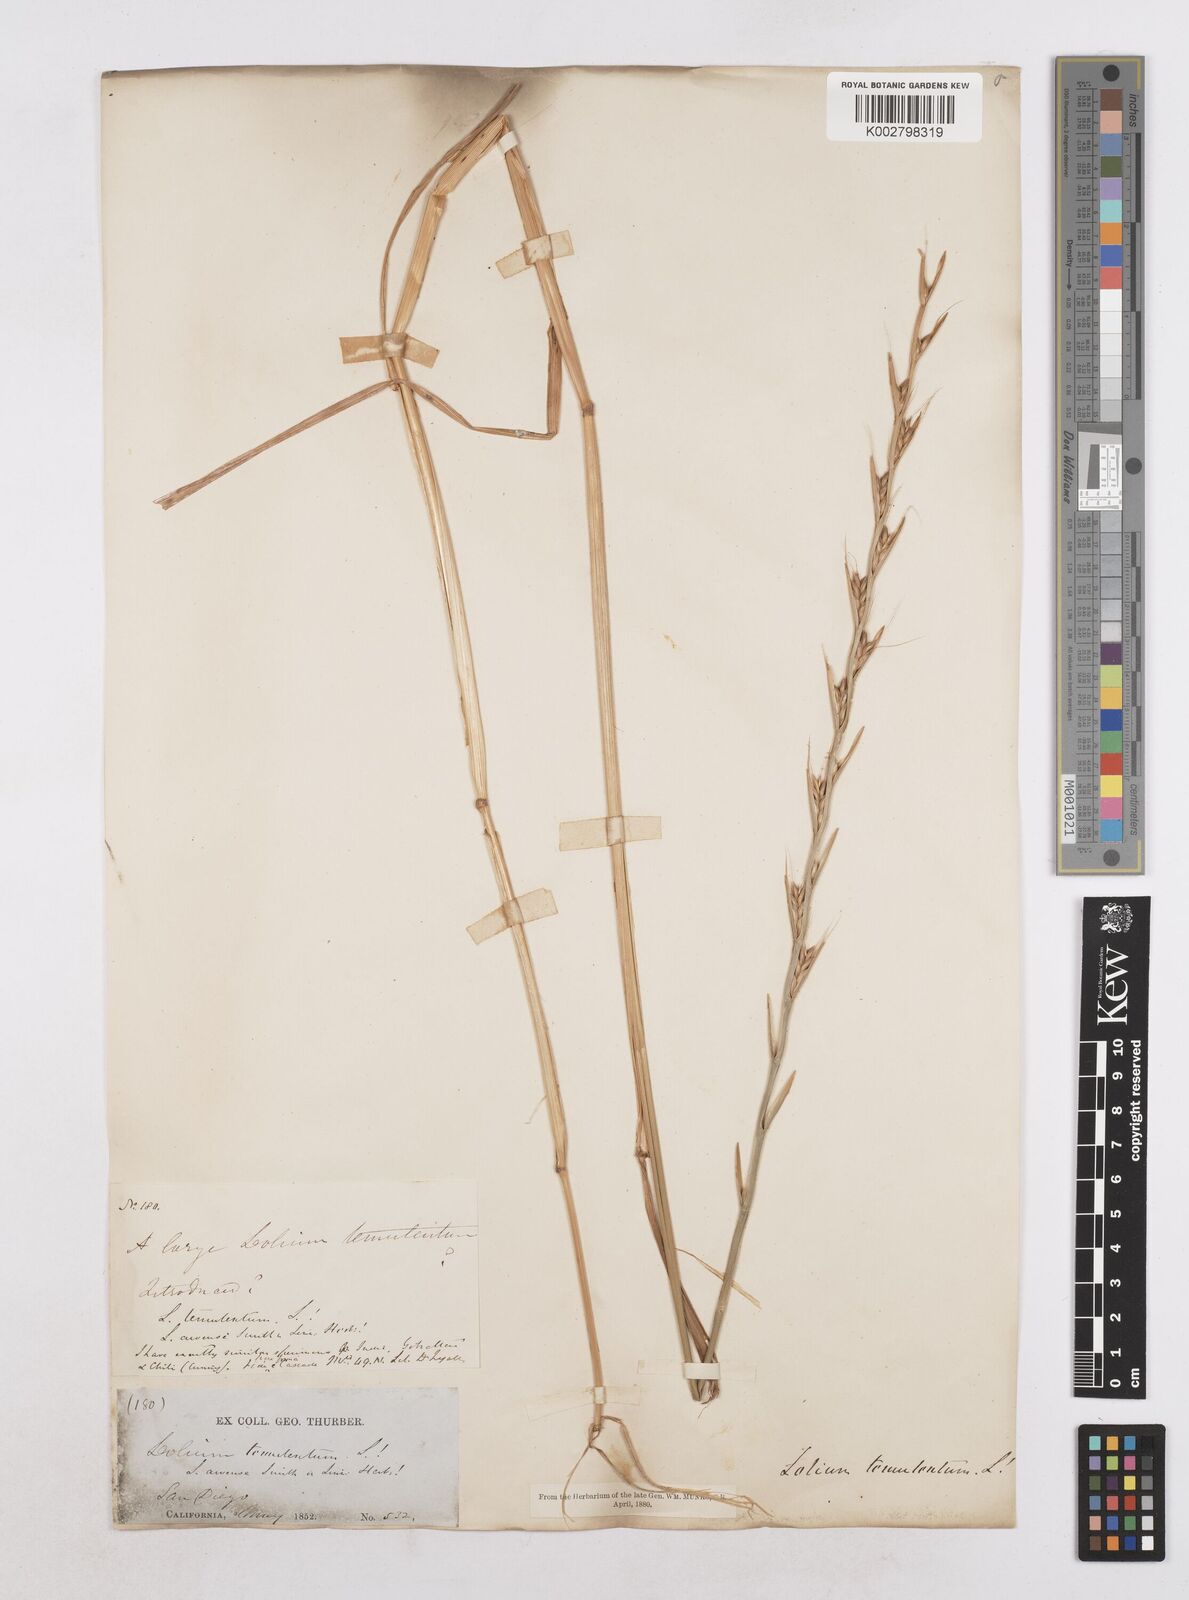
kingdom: Plantae
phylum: Tracheophyta
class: Liliopsida
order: Poales
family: Poaceae
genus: Lolium
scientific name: Lolium temulentum
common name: Darnel
